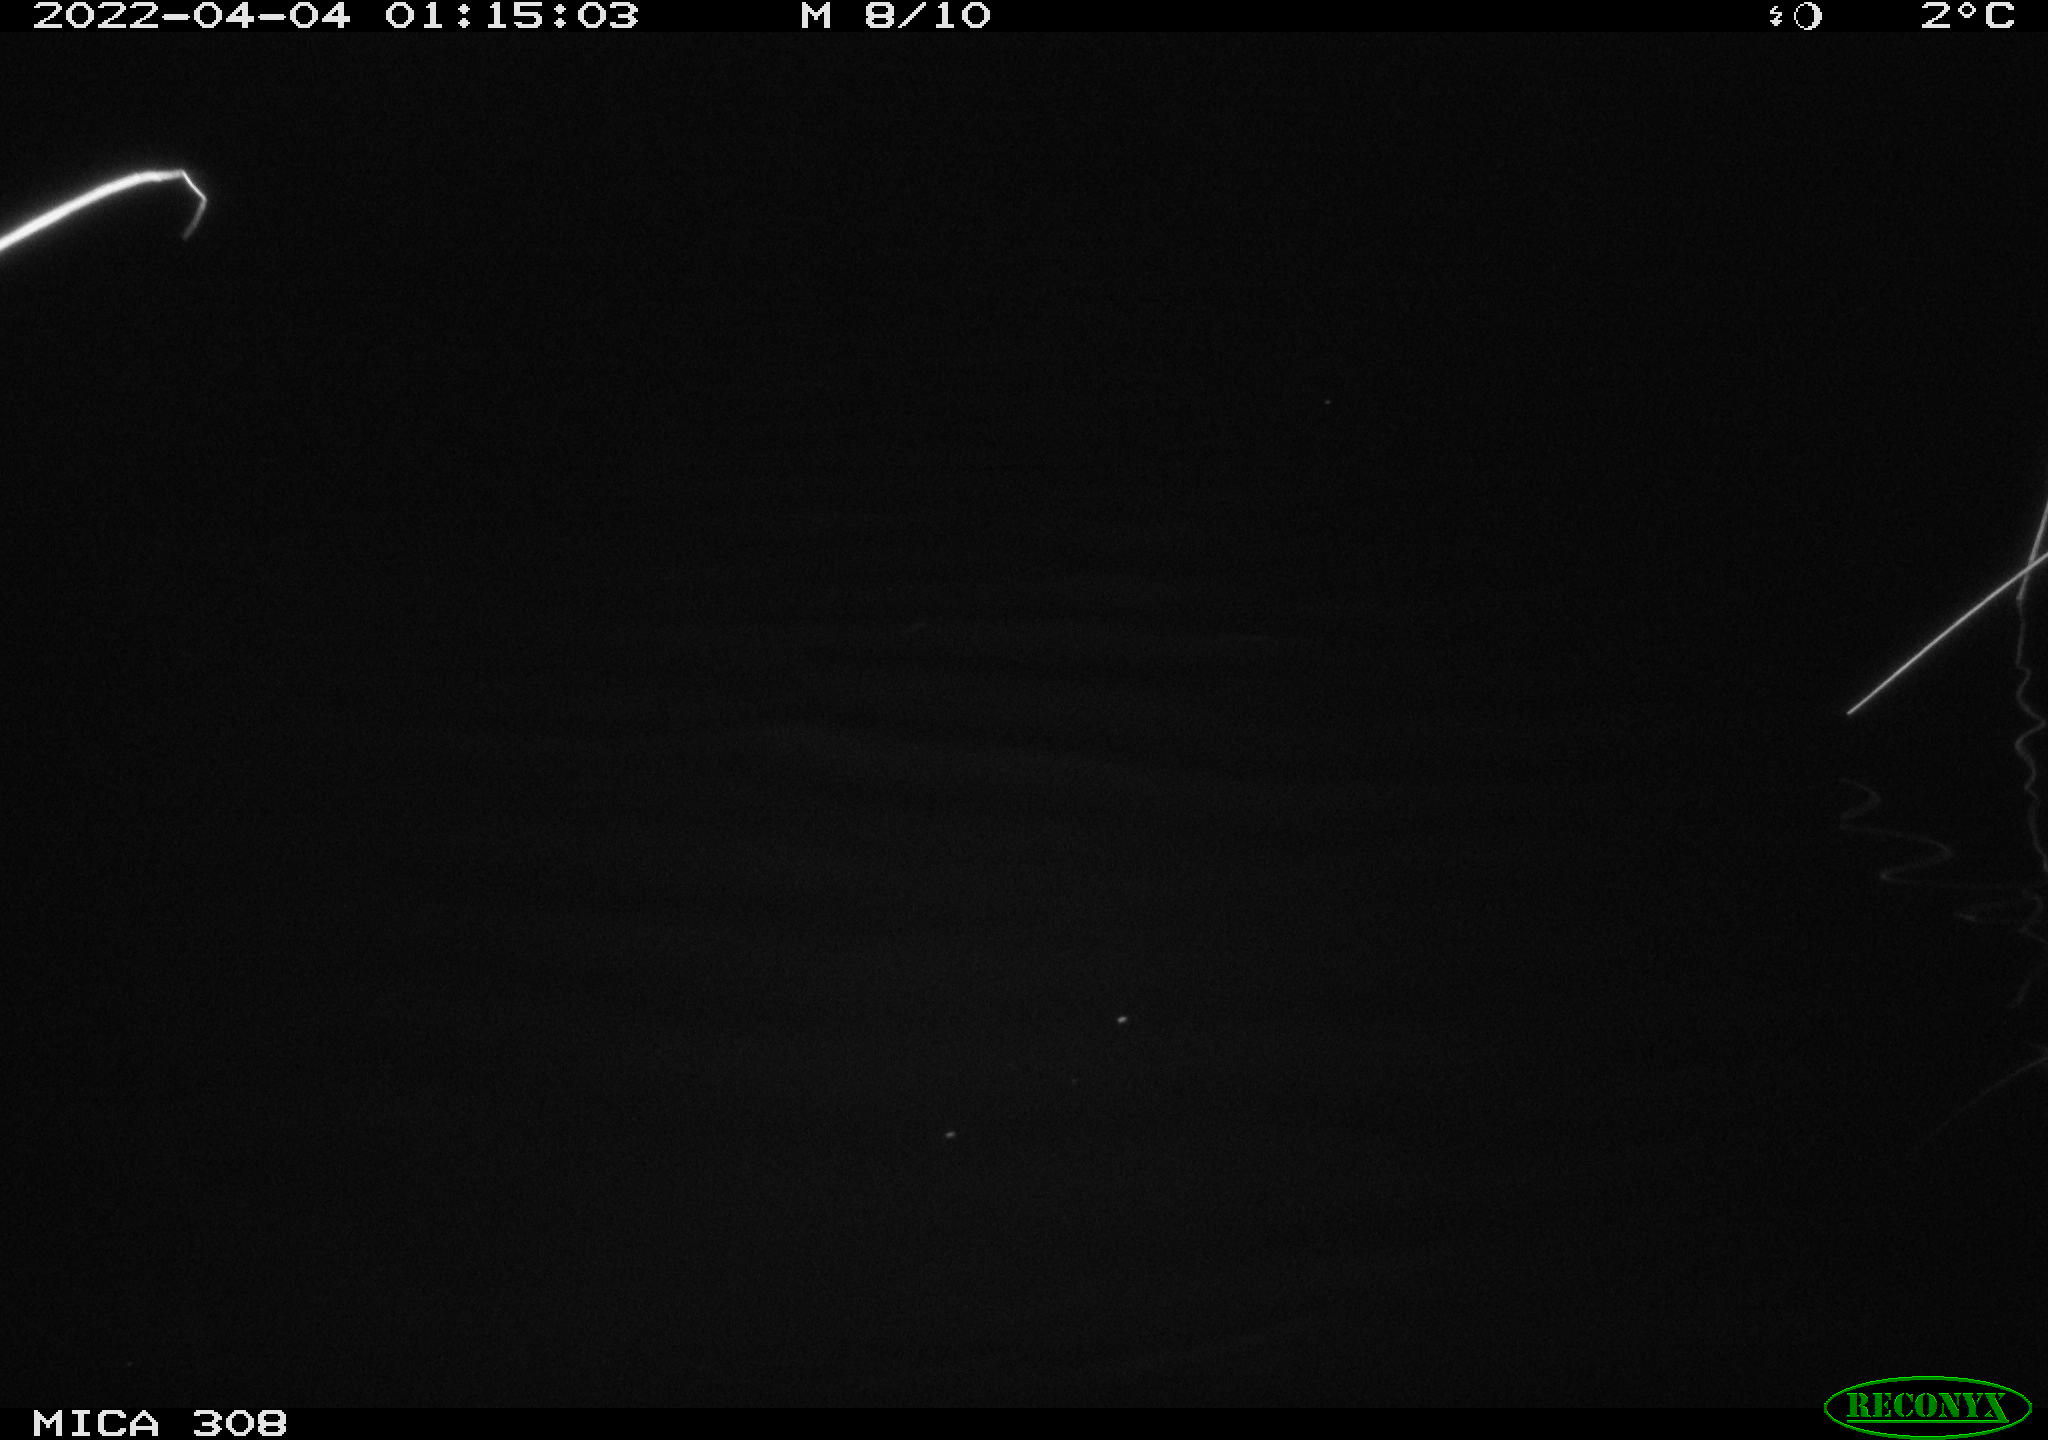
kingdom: Animalia
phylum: Chordata
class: Aves
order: Anseriformes
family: Anatidae
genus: Anas
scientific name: Anas platyrhynchos
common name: Mallard
